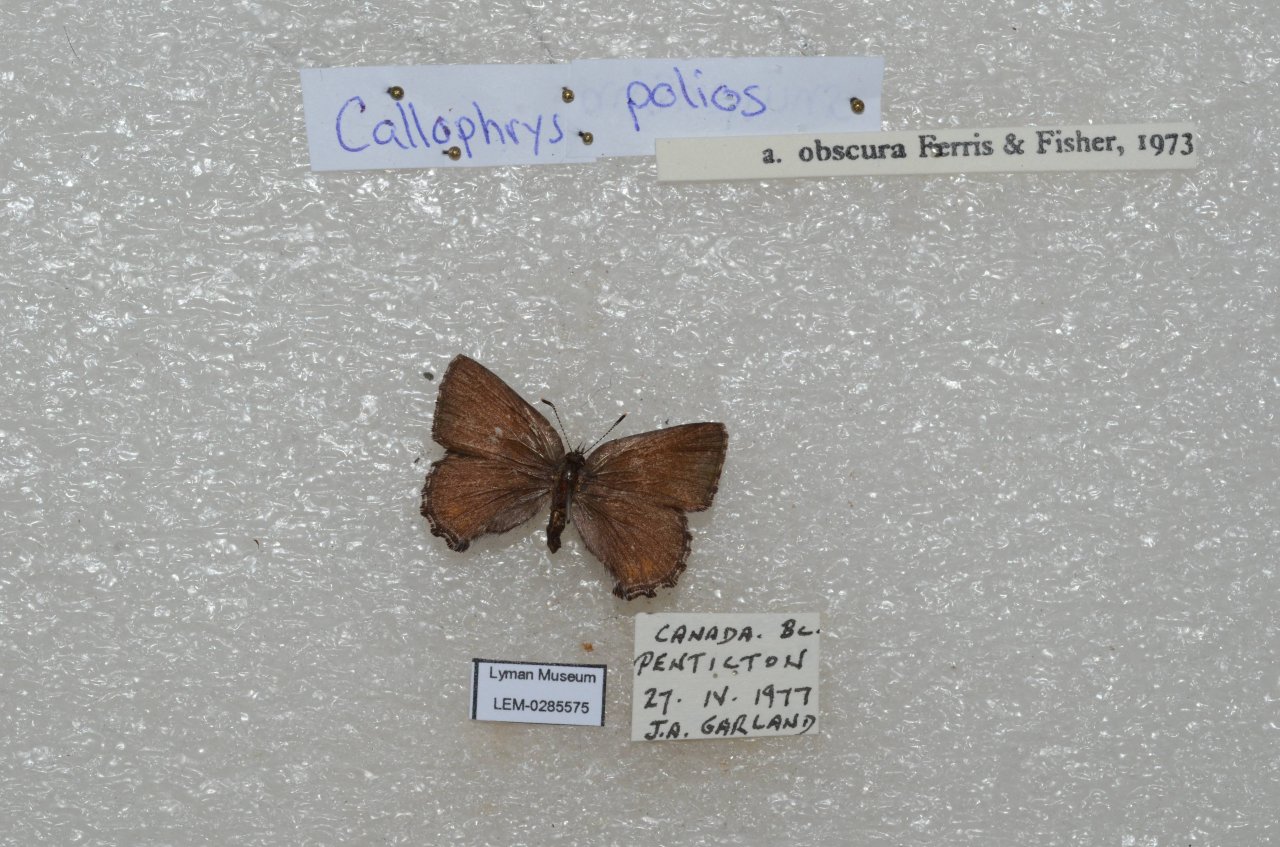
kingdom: Animalia
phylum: Arthropoda
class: Insecta
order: Lepidoptera
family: Lycaenidae
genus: Callophrys
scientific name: Callophrys polios
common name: Hoary Elfin
